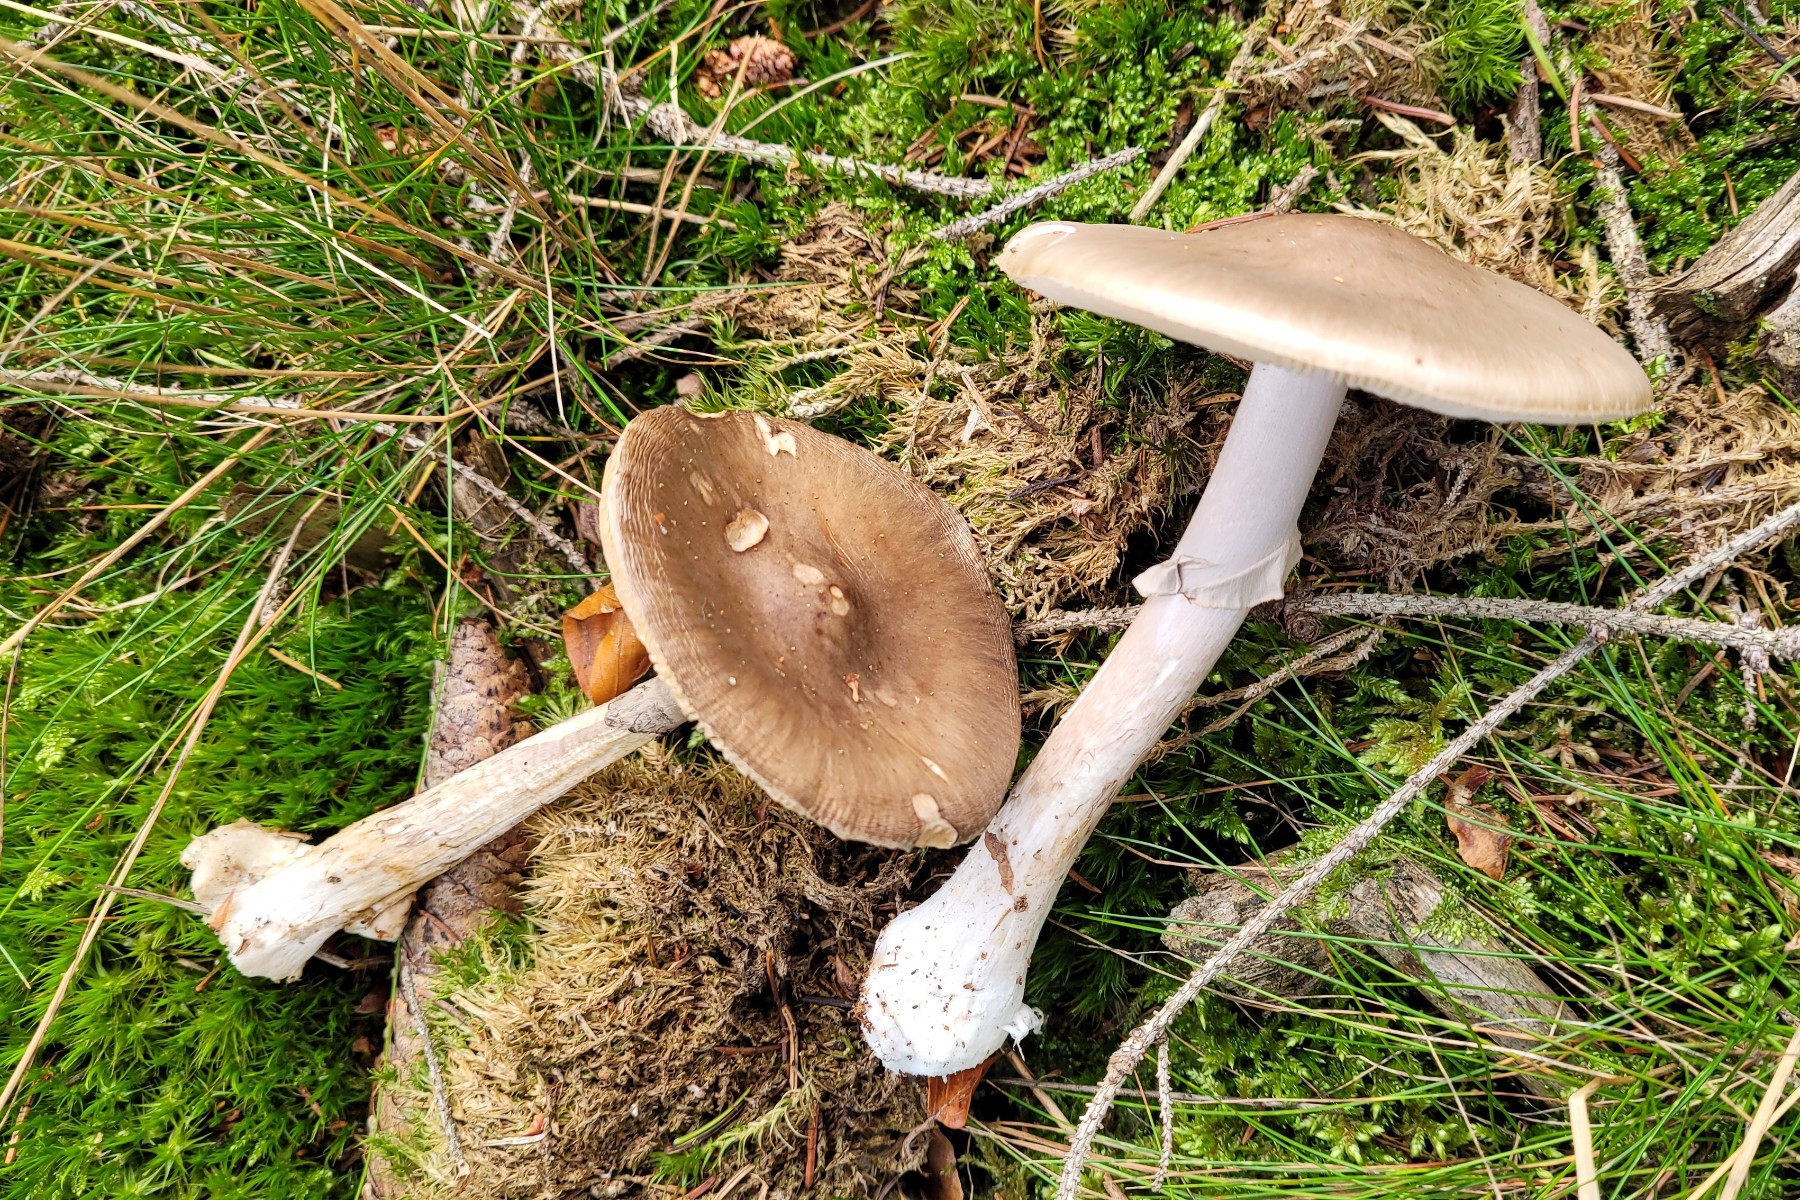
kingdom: Fungi
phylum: Basidiomycota
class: Agaricomycetes
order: Agaricales
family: Amanitaceae
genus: Amanita
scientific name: Amanita porphyria
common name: porfyr-fluesvamp
